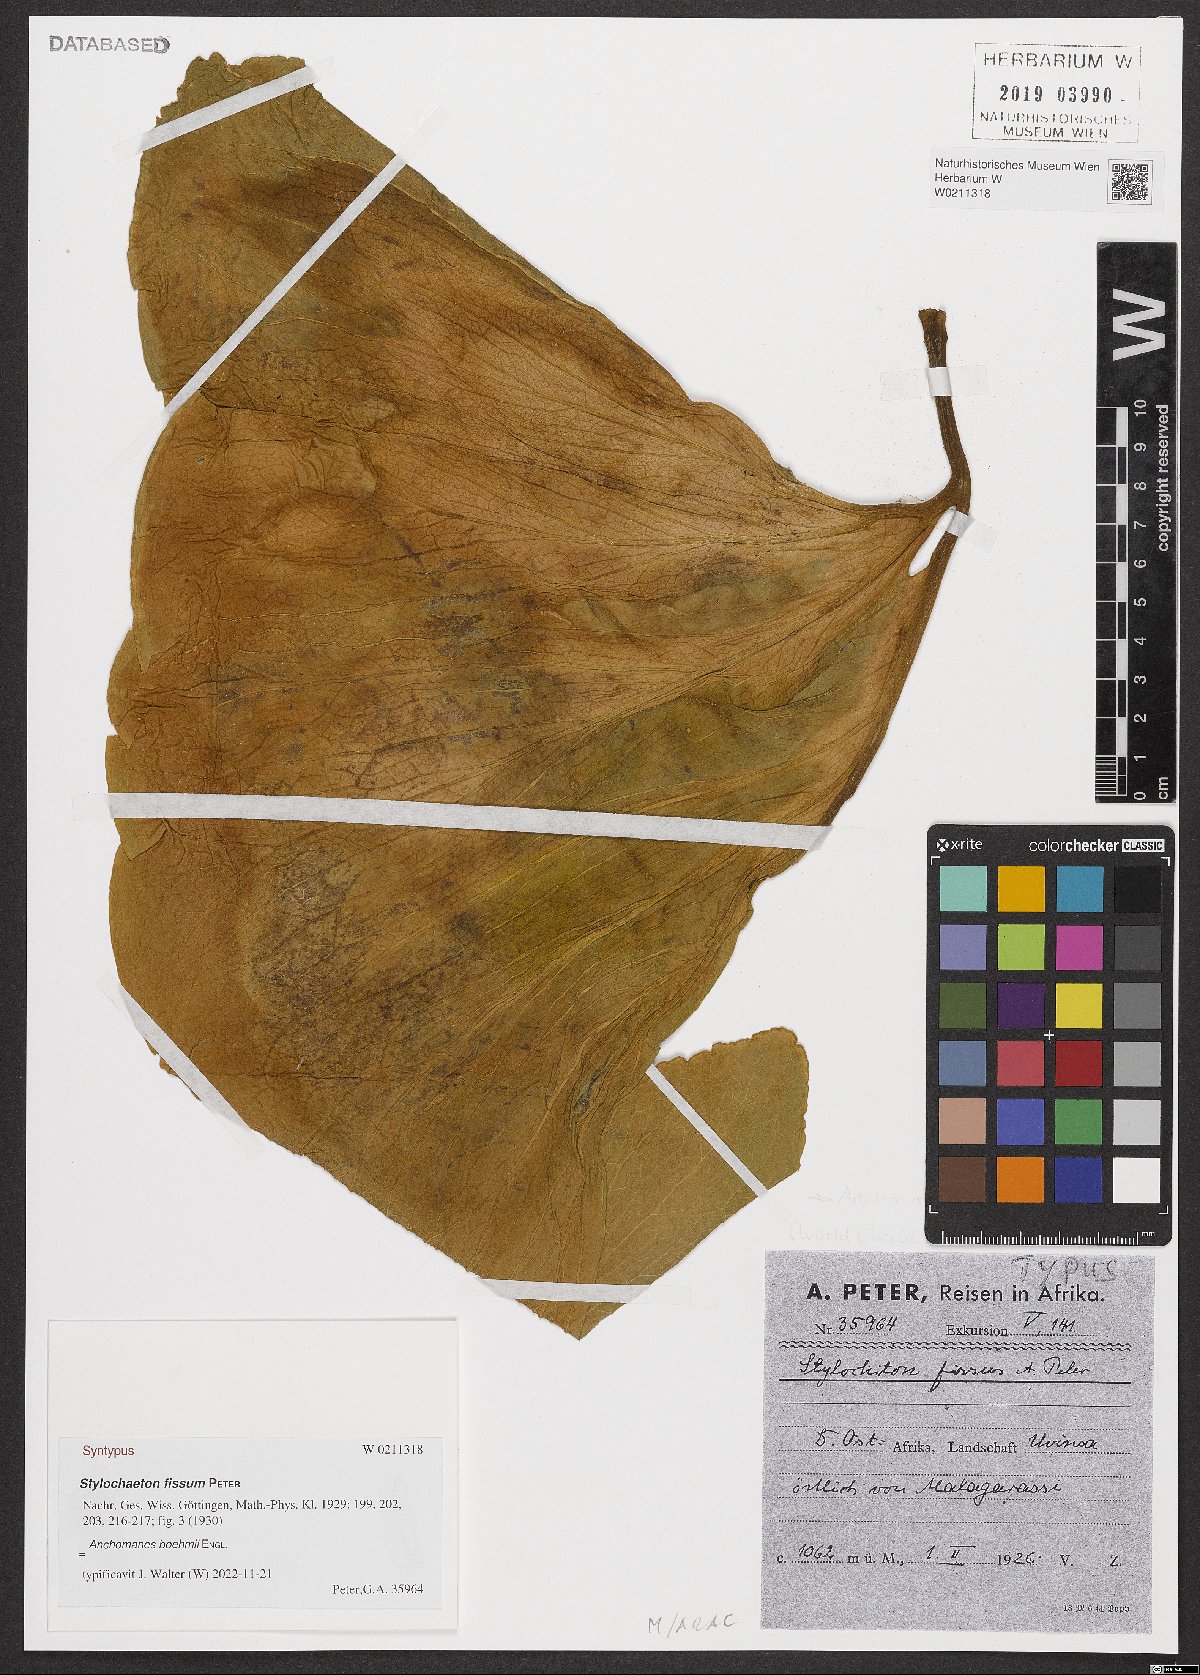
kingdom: Plantae
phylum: Tracheophyta
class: Liliopsida
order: Alismatales
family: Araceae
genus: Anchomanes
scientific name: Anchomanes boehmii
